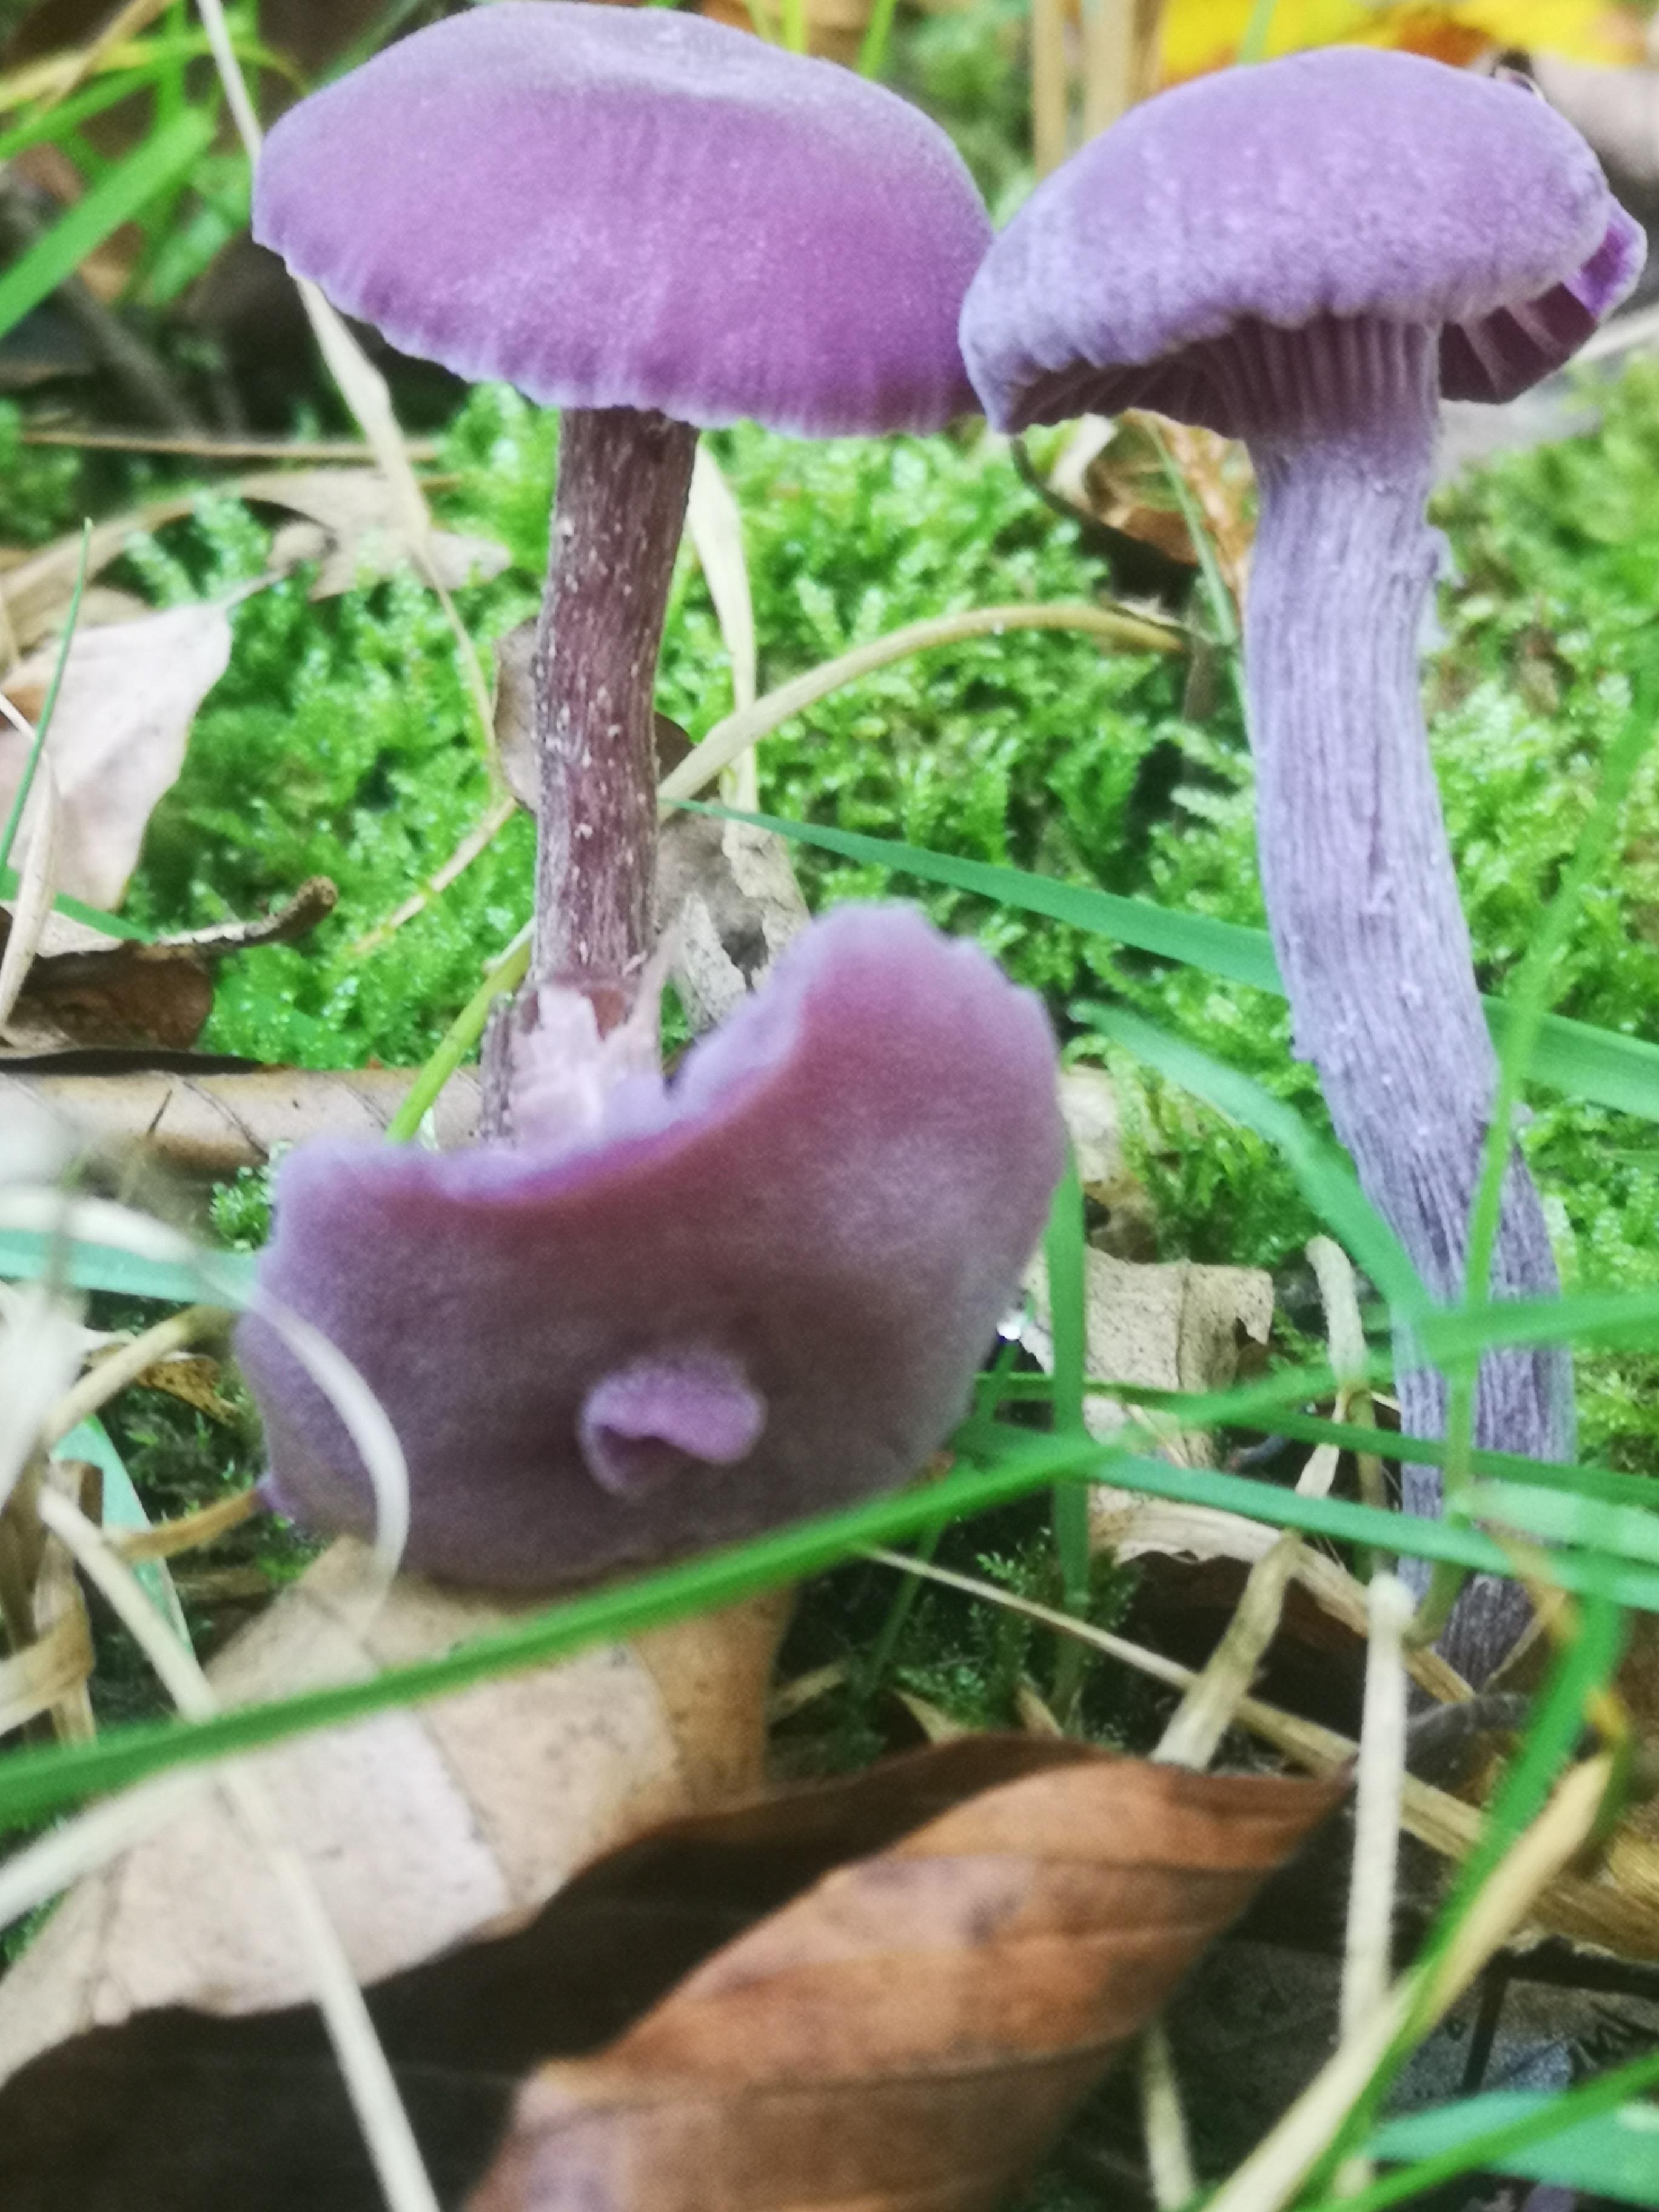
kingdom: Fungi
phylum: Basidiomycota
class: Agaricomycetes
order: Agaricales
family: Hydnangiaceae
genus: Laccaria
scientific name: Laccaria amethystina
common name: violet ametysthat
